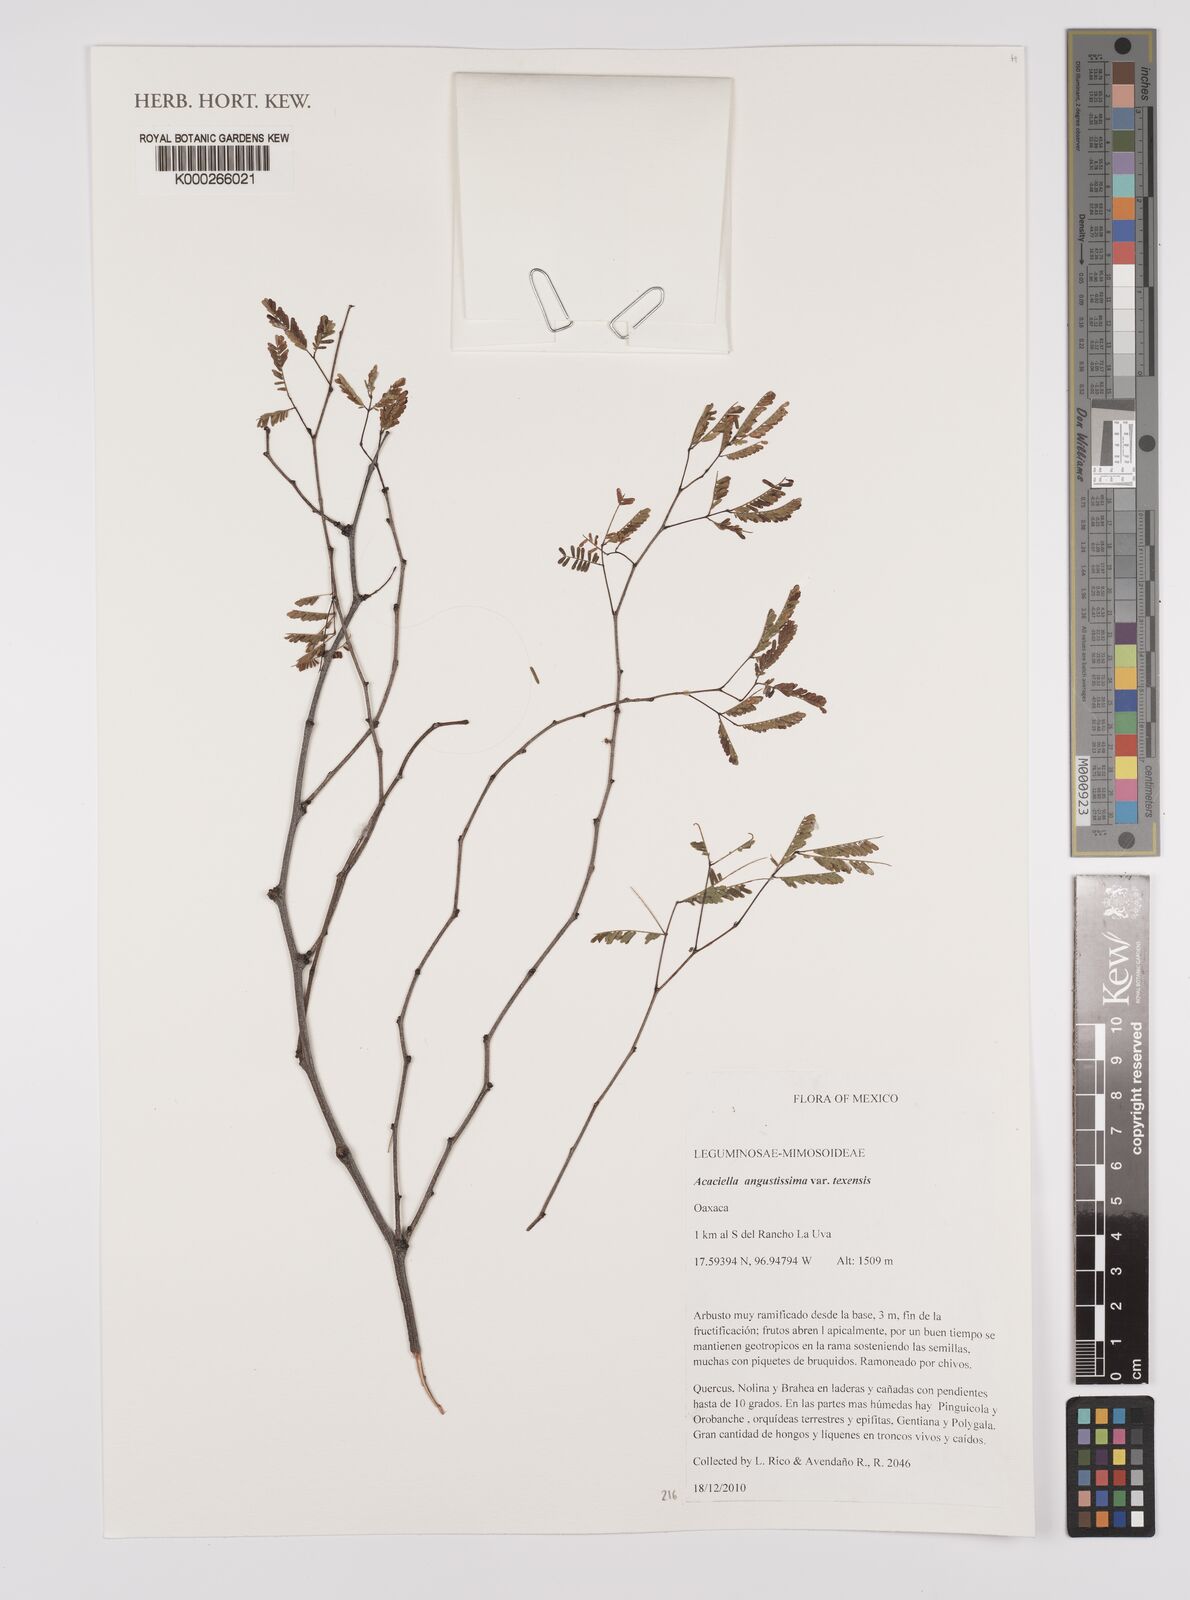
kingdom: Plantae
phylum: Tracheophyta
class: Magnoliopsida
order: Fabales
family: Fabaceae
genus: Acaciella
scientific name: Acaciella angustissima
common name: Prairie acacia
